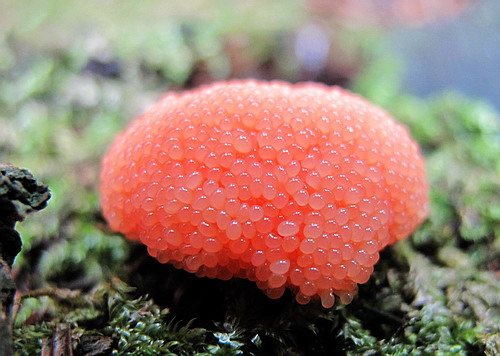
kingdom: Protozoa
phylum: Mycetozoa
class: Myxomycetes
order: Cribrariales
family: Tubiferaceae
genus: Tubifera
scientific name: Tubifera ferruginosa
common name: kanel-støvrør
